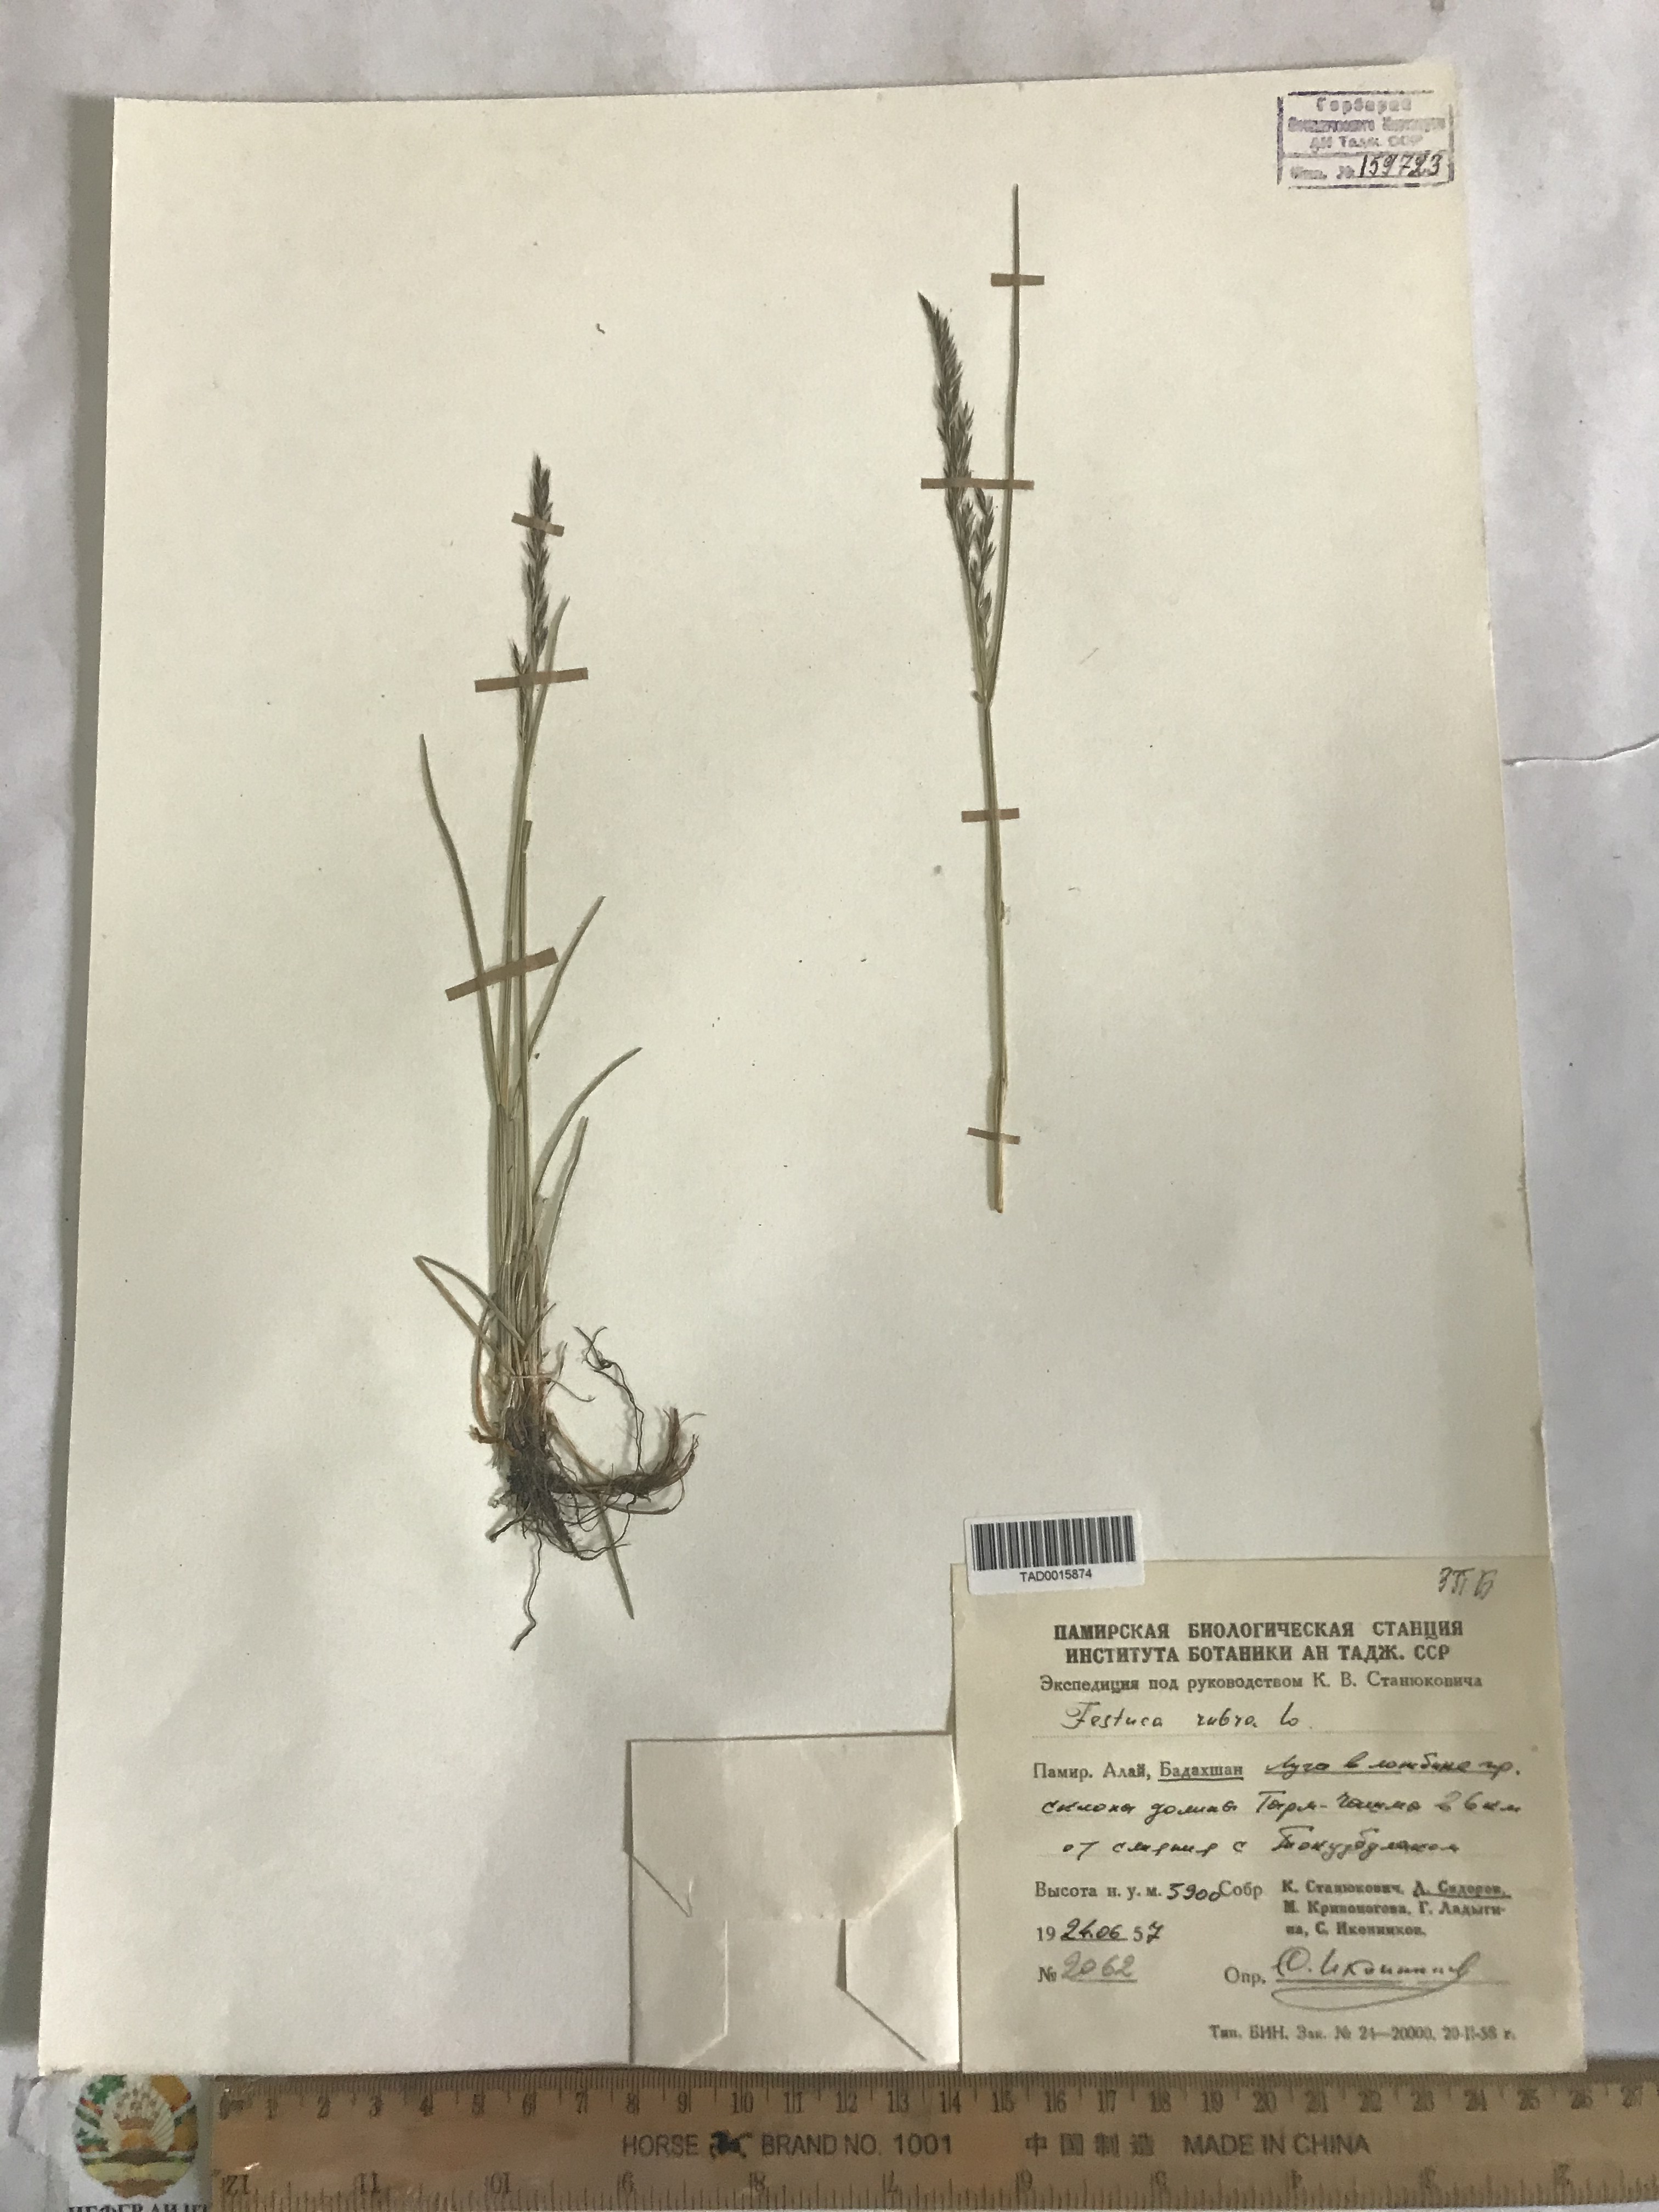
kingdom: Plantae
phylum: Tracheophyta
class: Liliopsida
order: Poales
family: Poaceae
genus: Festuca
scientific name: Festuca rubra
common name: Red fescue
